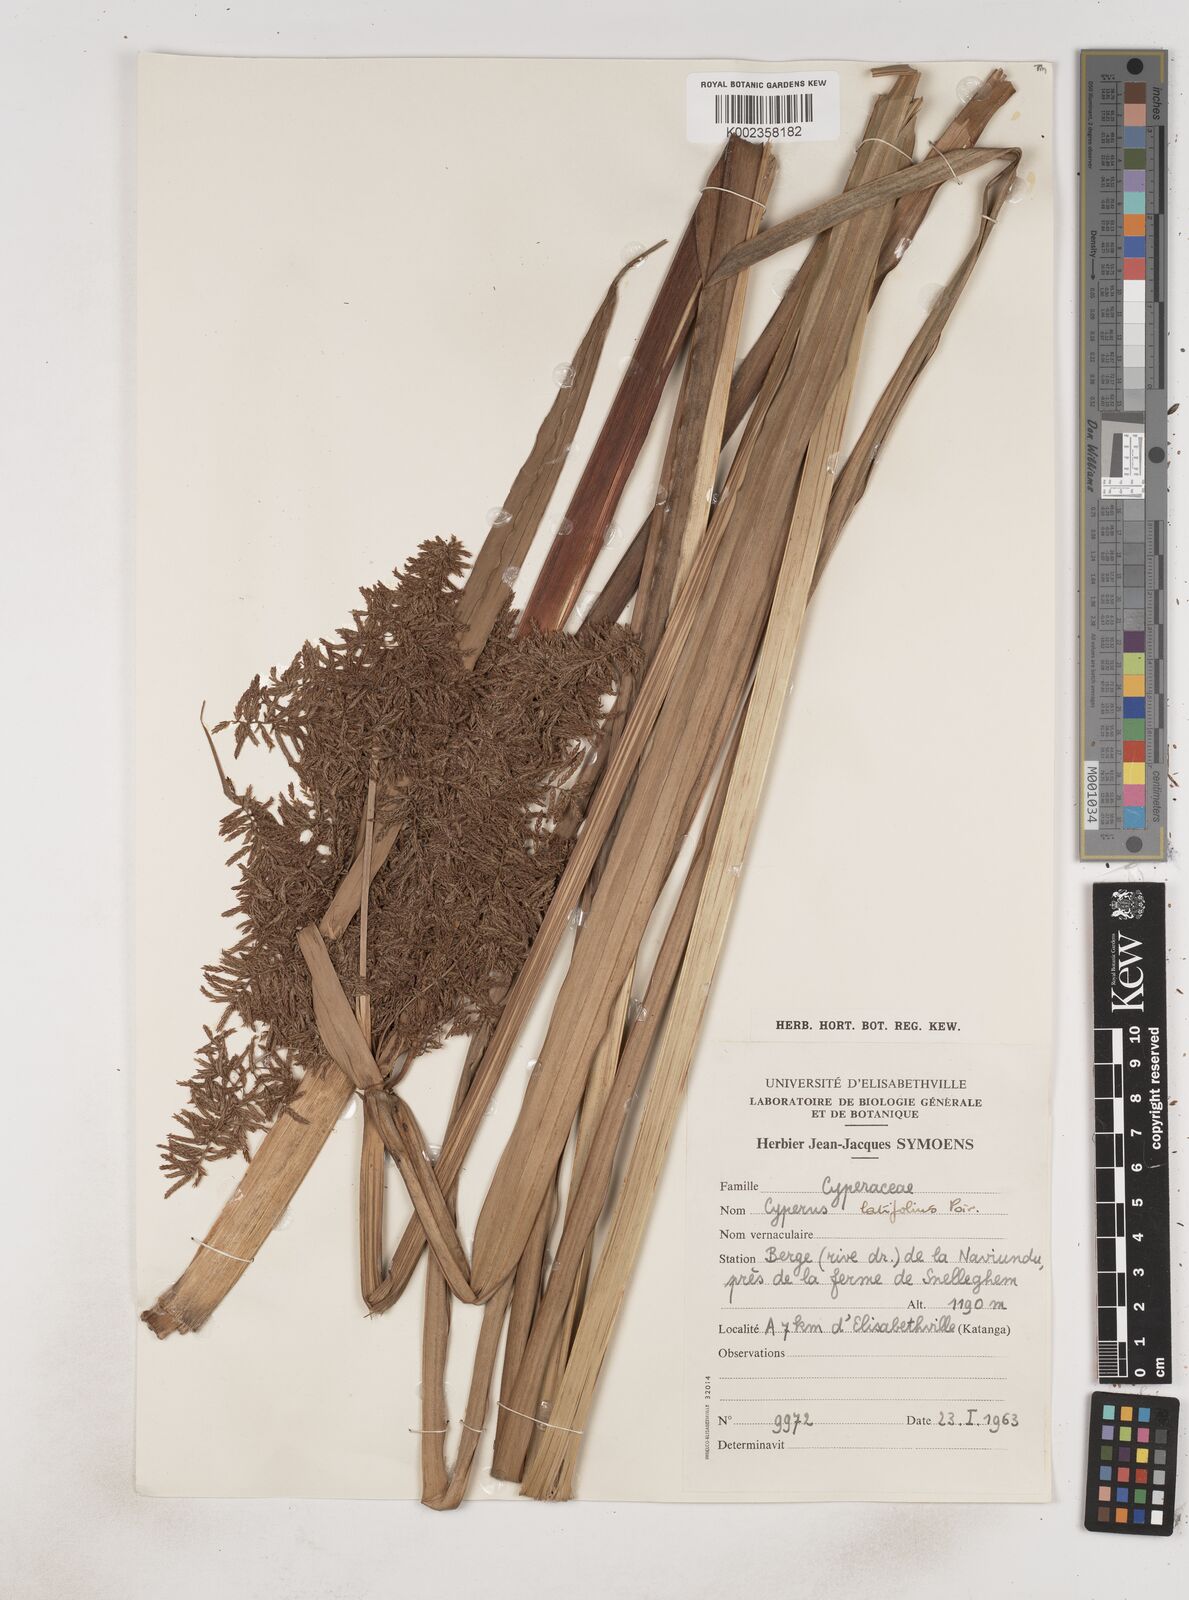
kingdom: Plantae
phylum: Tracheophyta
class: Liliopsida
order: Poales
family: Cyperaceae
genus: Cyperus
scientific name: Cyperus latifolius
